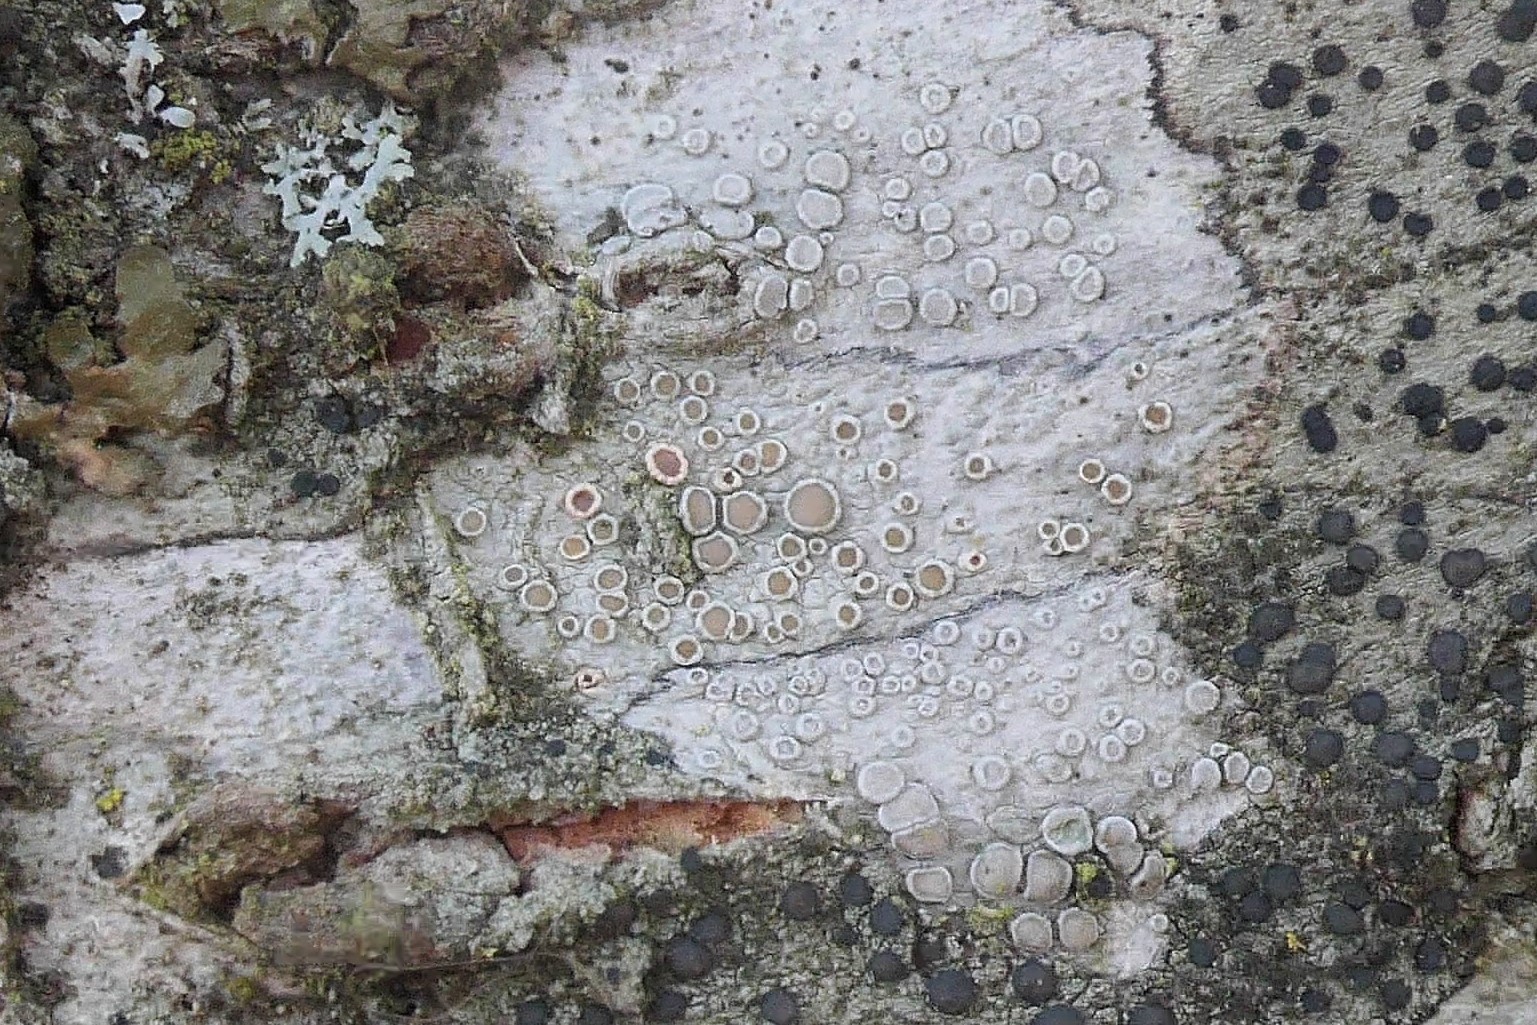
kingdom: Fungi
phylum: Ascomycota
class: Lecanoromycetes
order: Lecanorales
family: Lecanoraceae
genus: Lecanora
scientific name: Lecanora chlarotera
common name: brun kantskivelav
